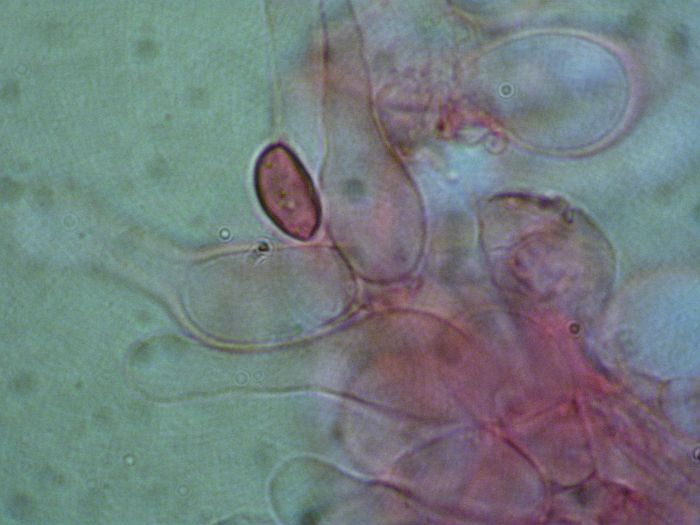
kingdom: Fungi
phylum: Basidiomycota
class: Agaricomycetes
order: Agaricales
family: Hymenogastraceae
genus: Galerina
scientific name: Galerina cephalotricha
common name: hede-hjelmhat
